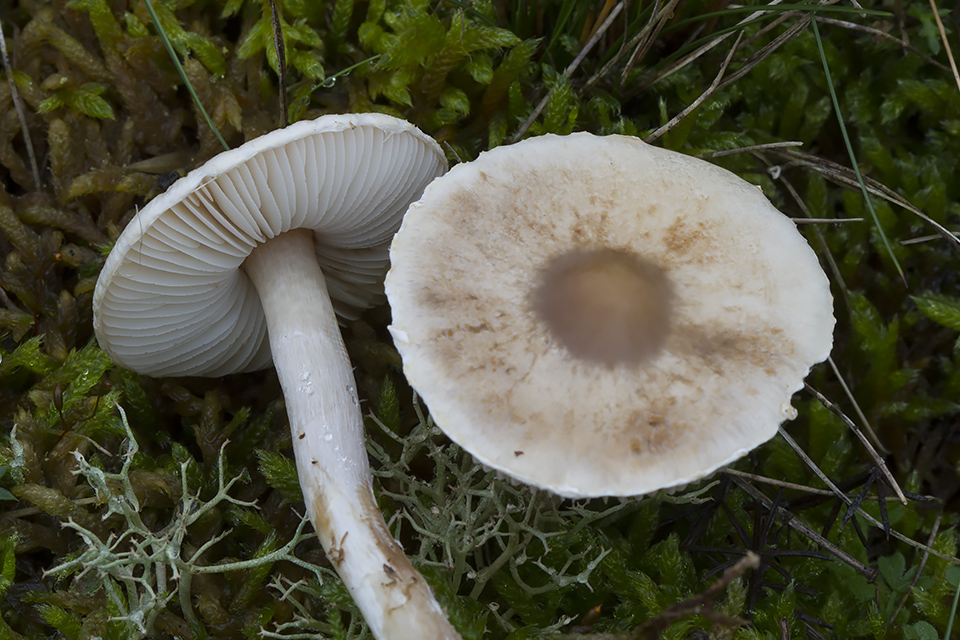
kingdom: Fungi
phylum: Basidiomycota
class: Agaricomycetes
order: Agaricales
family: Agaricaceae
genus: Lepiota
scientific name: Lepiota erminea
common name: hvid parasolhat
